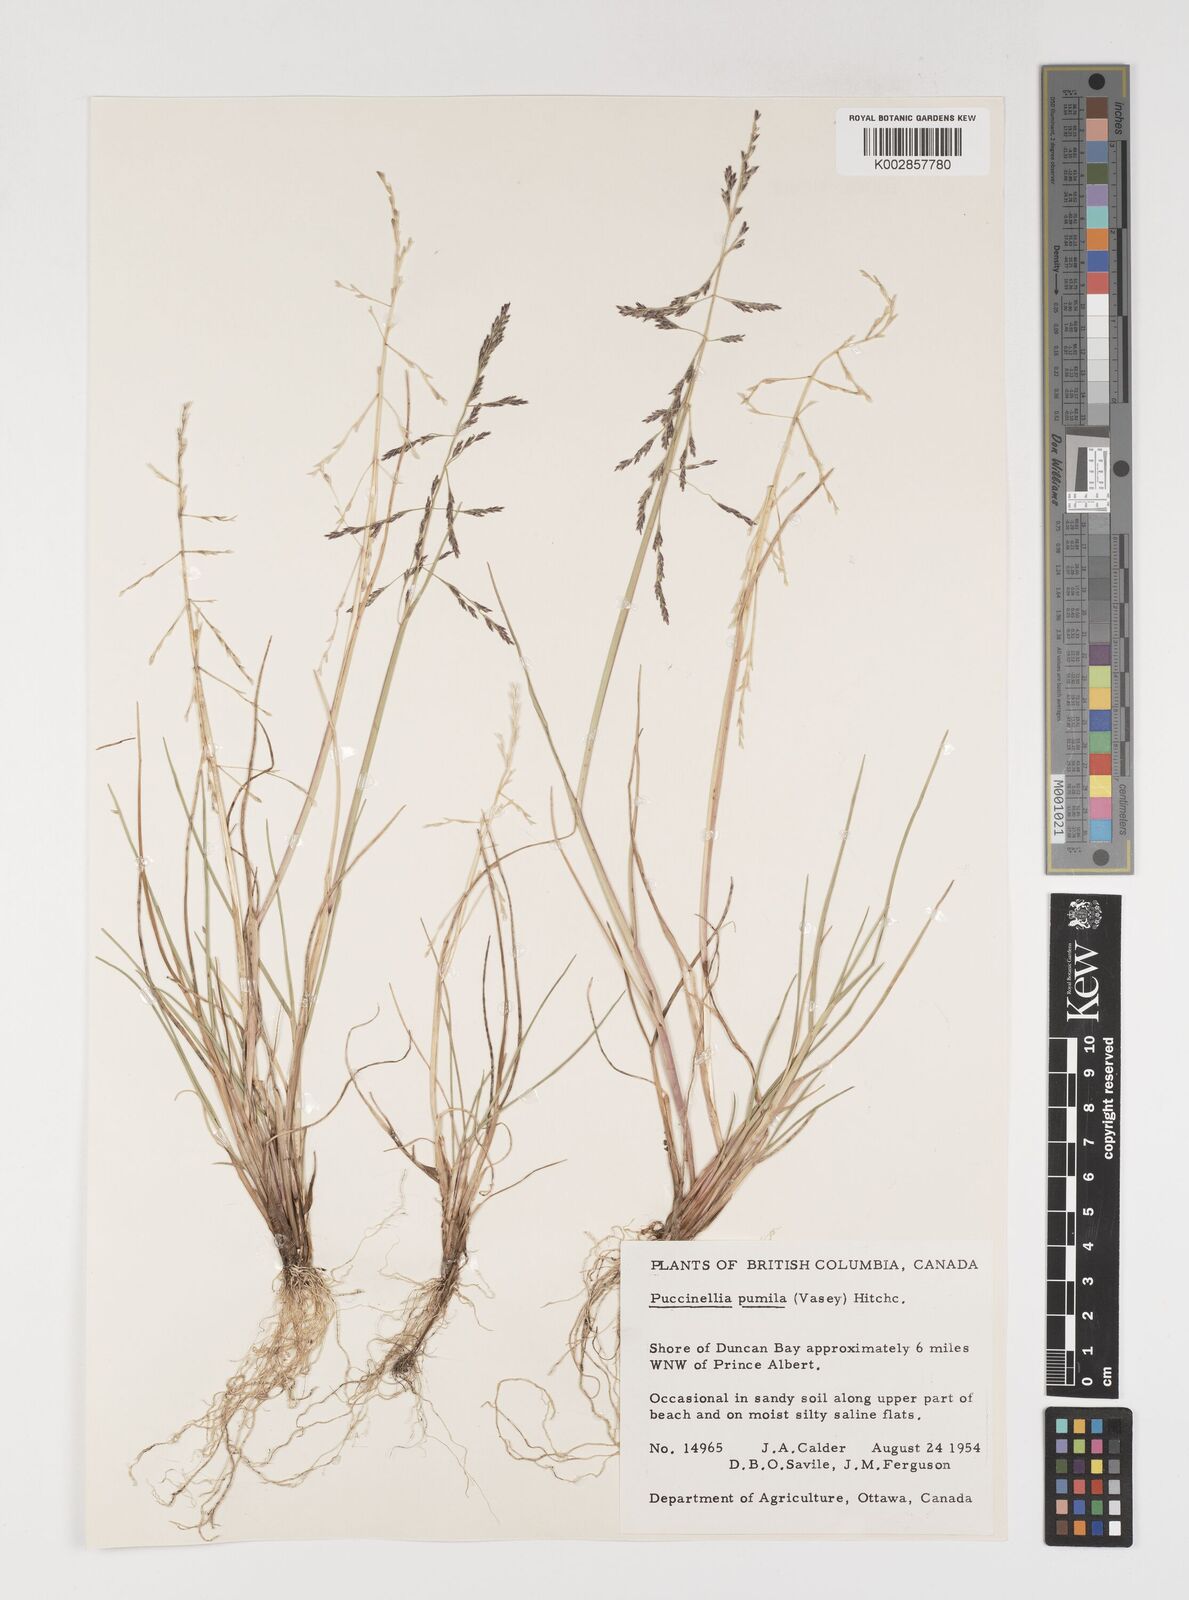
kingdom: Plantae
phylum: Tracheophyta
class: Liliopsida
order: Poales
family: Poaceae
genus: Puccinellia
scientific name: Puccinellia pumila
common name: Dwarf alkaligrass
